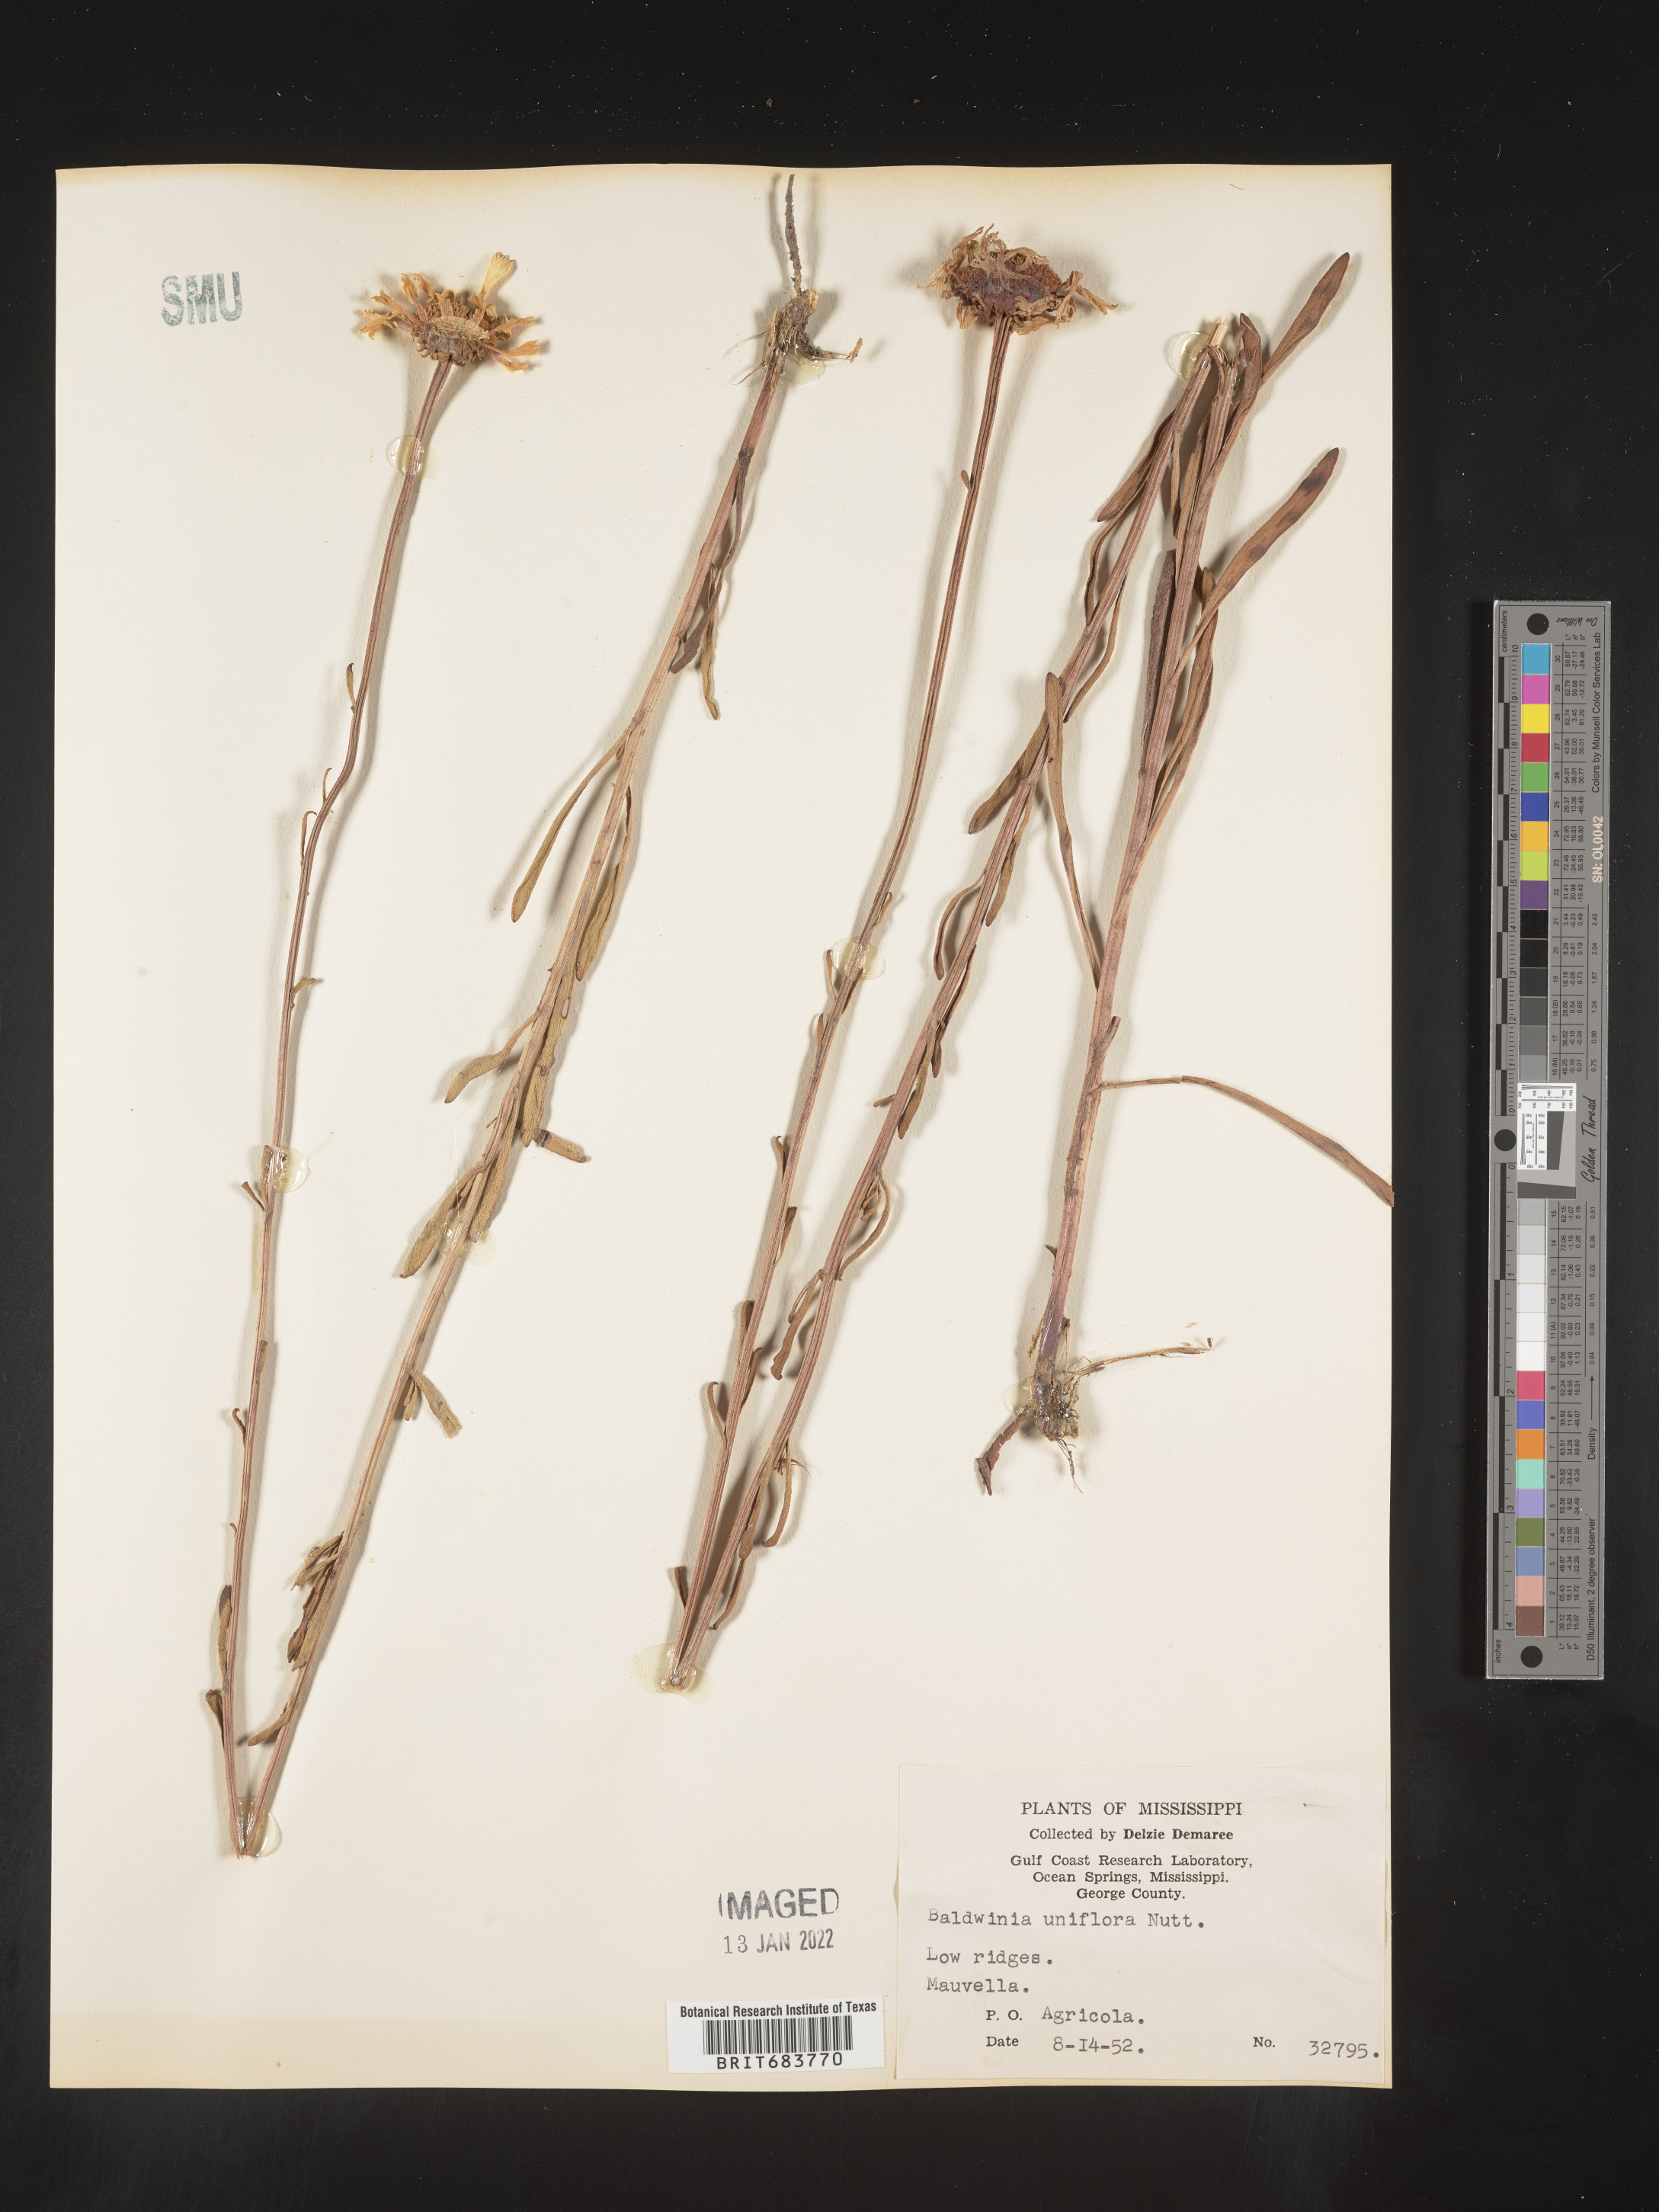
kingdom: Plantae
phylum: Tracheophyta
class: Magnoliopsida
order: Asterales
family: Asteraceae
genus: Balduina
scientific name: Balduina uniflora
